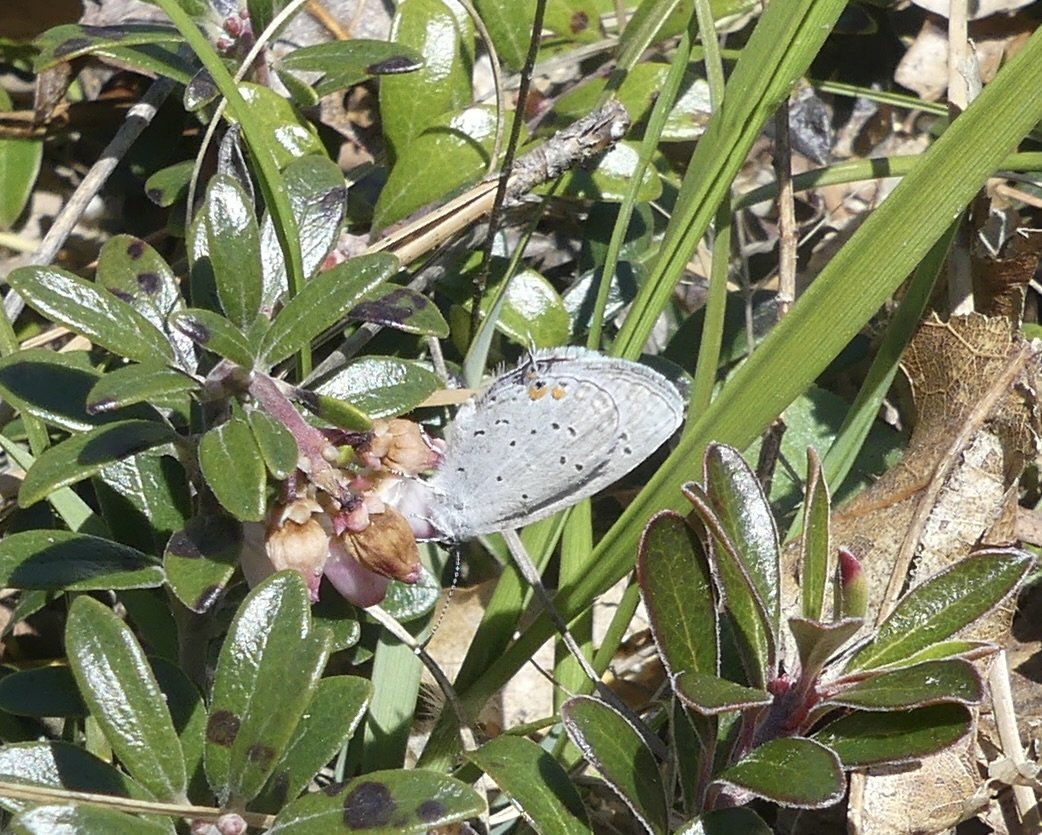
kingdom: Animalia
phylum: Arthropoda
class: Insecta
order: Lepidoptera
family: Lycaenidae
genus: Elkalyce
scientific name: Elkalyce comyntas
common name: Eastern Tailed-Blue
